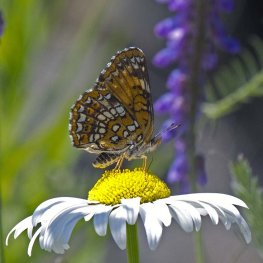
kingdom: Animalia
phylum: Arthropoda
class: Insecta
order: Lepidoptera
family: Nymphalidae
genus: Chlosyne
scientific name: Chlosyne harrisii
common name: Harris's Checkerspot
